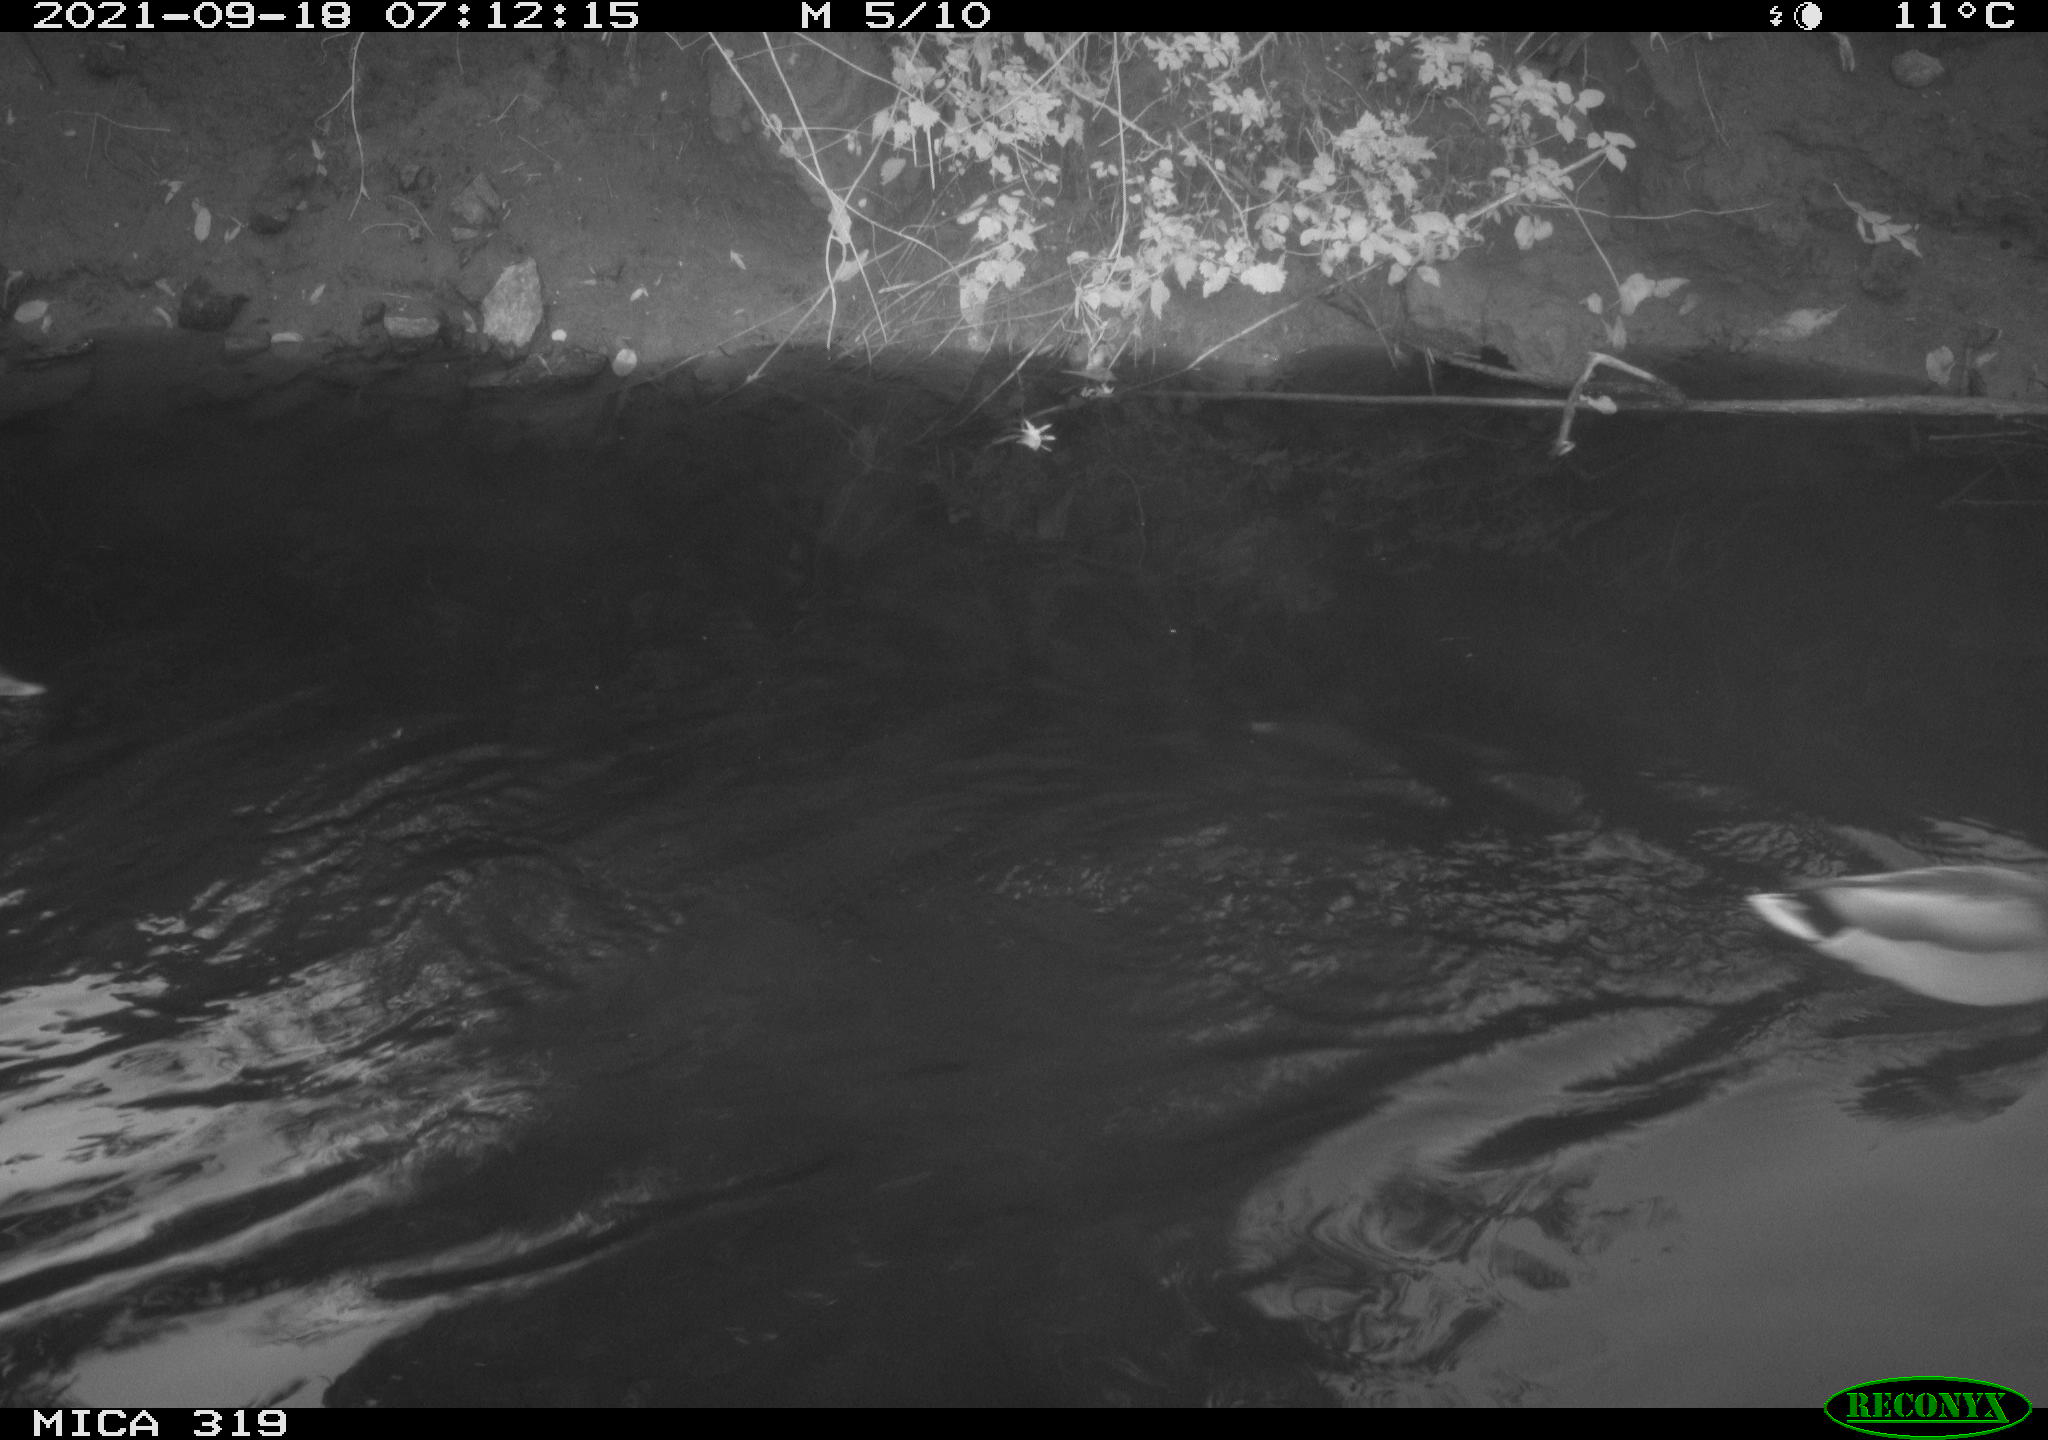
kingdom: Animalia
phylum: Chordata
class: Aves
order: Anseriformes
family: Anatidae
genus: Anas
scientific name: Anas platyrhynchos
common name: Mallard
